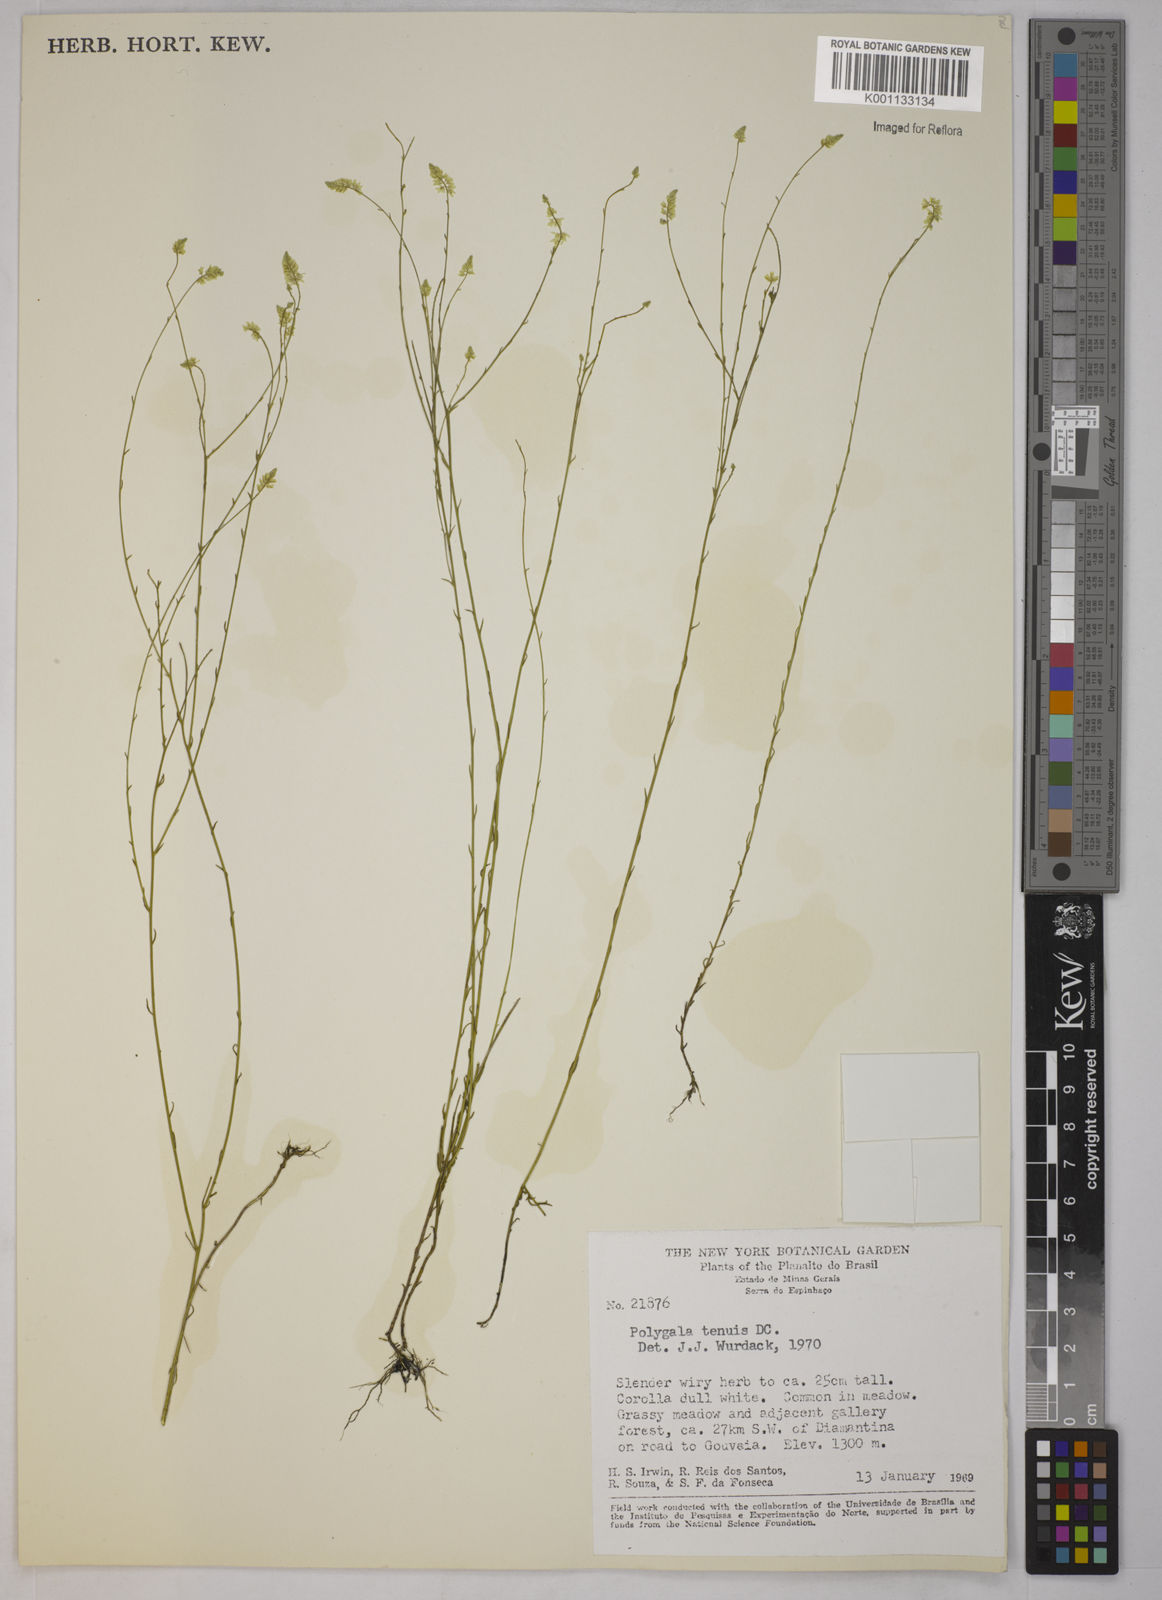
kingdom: Plantae
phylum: Tracheophyta
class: Magnoliopsida
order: Fabales
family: Polygalaceae
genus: Polygala
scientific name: Polygala tenuis
